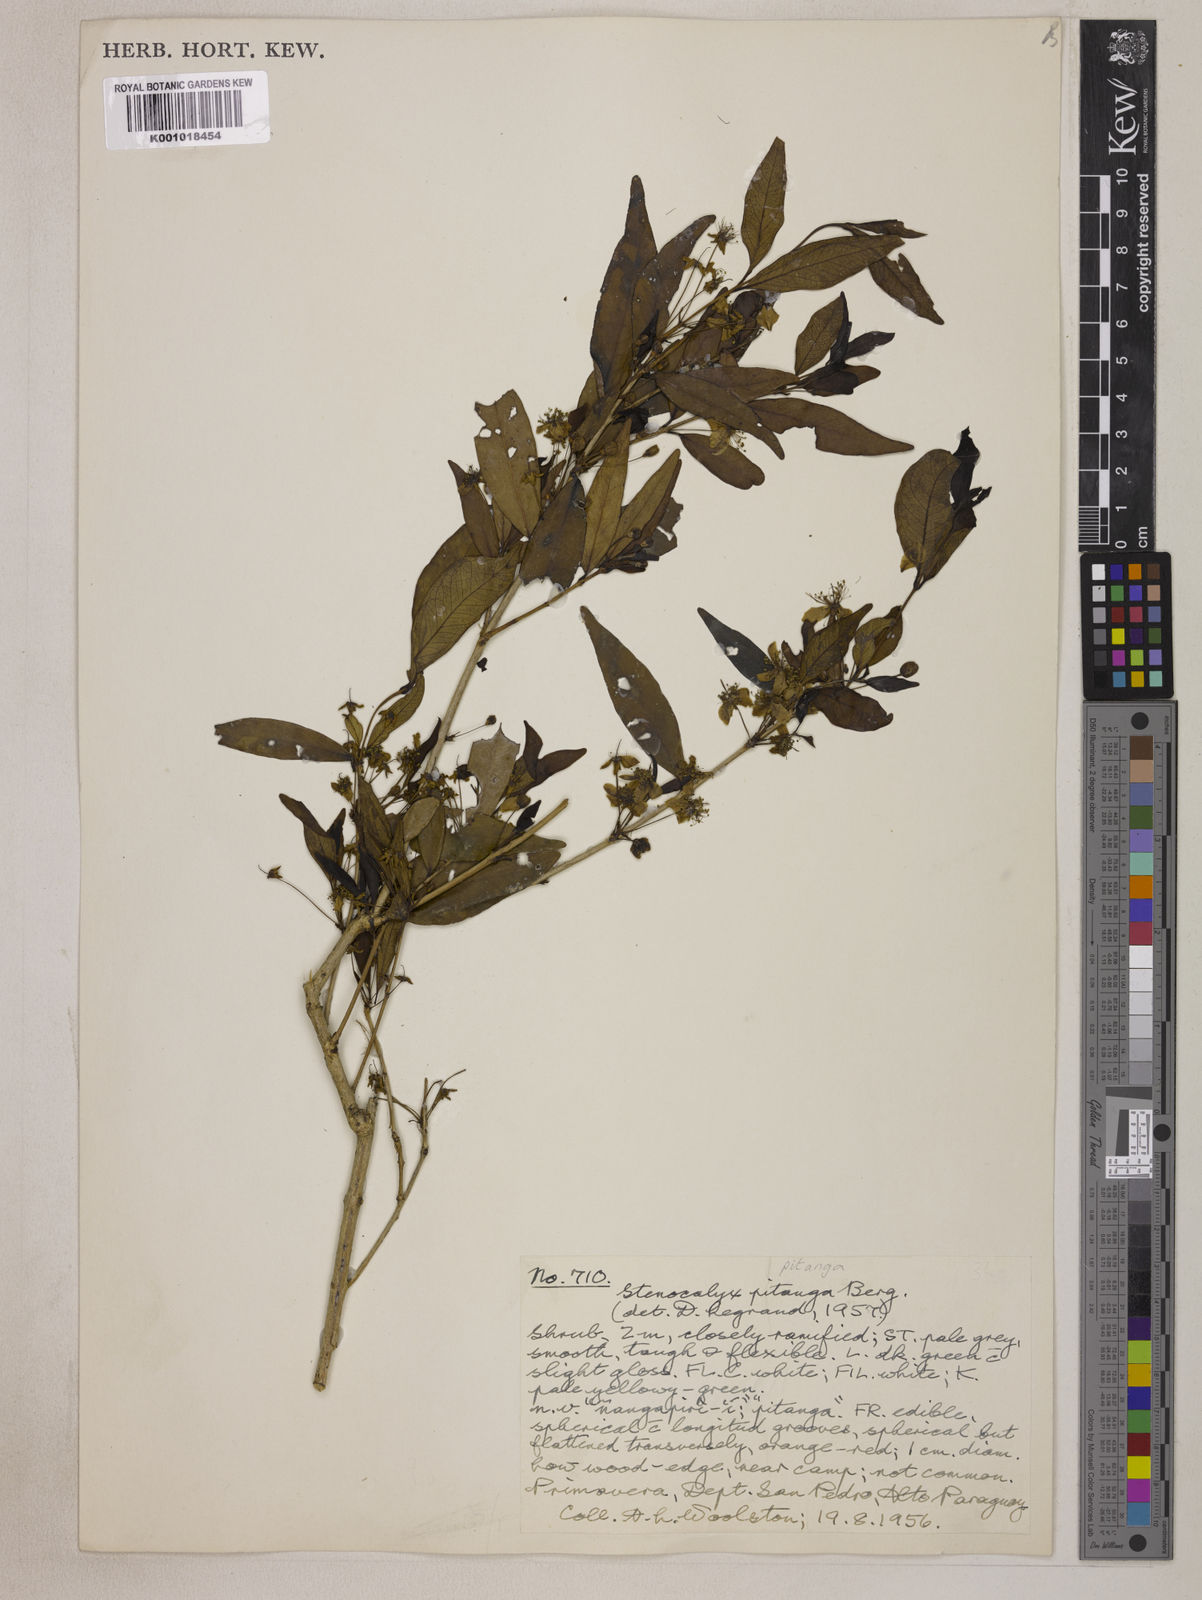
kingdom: Plantae
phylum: Tracheophyta
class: Magnoliopsida
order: Myrtales
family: Myrtaceae
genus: Eugenia
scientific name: Eugenia
